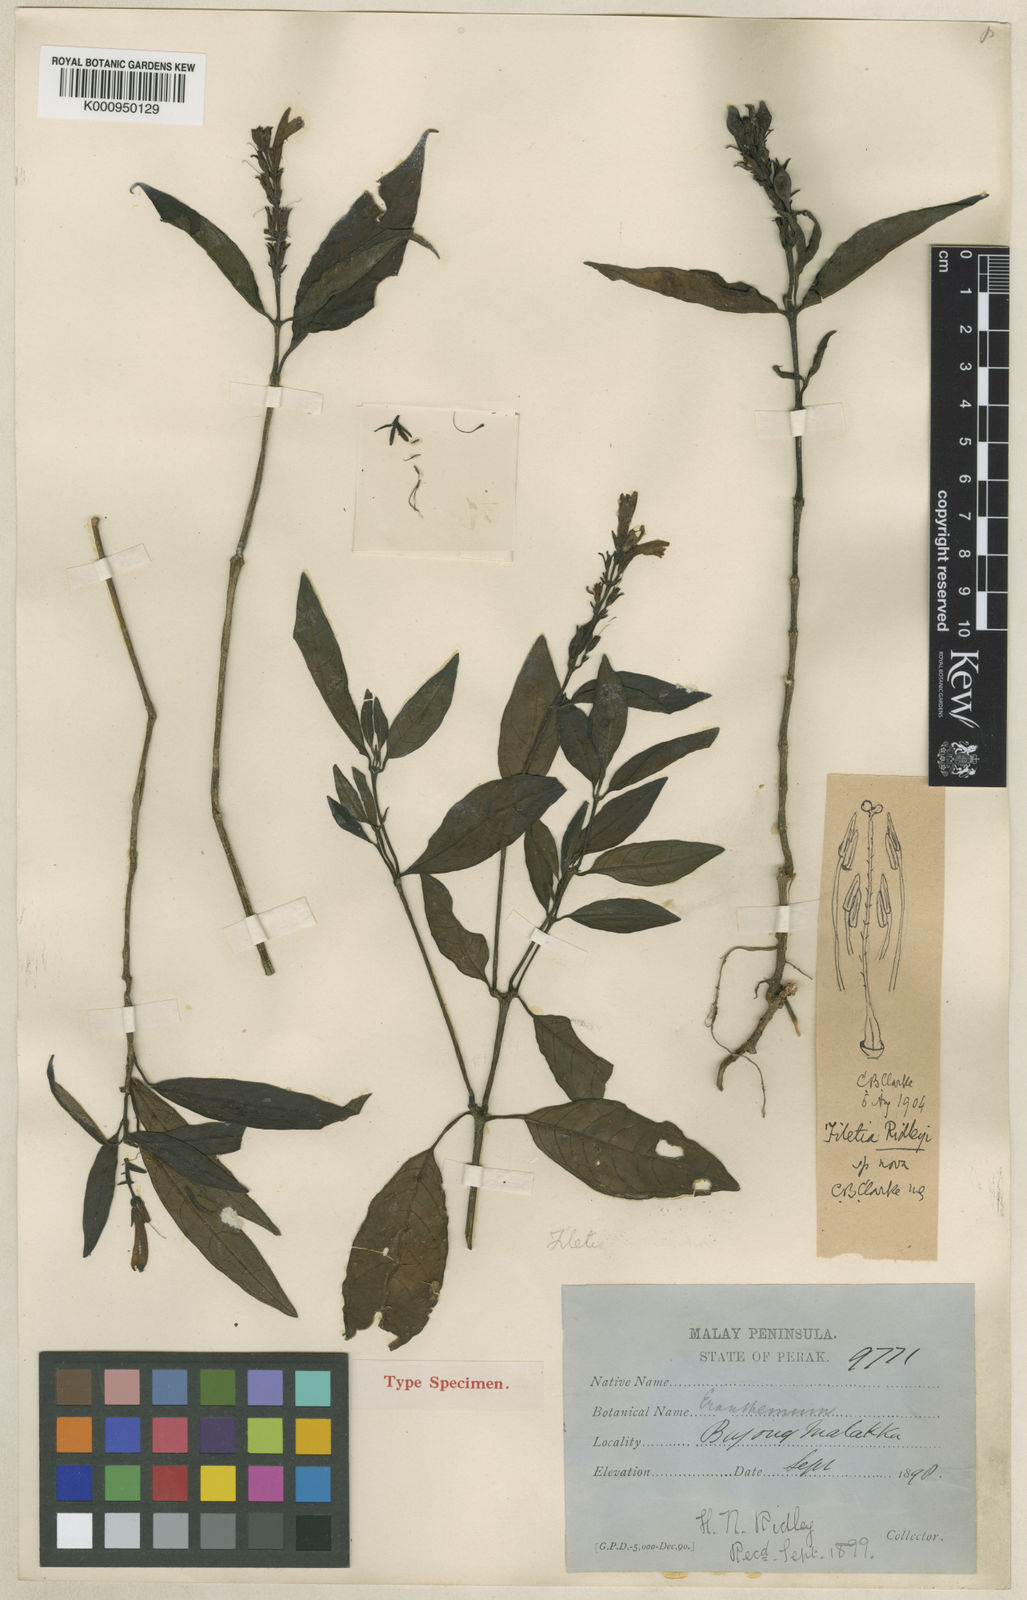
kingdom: Plantae
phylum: Tracheophyta
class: Magnoliopsida
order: Lamiales
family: Acanthaceae
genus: Filetia
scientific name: Filetia ridleyi
